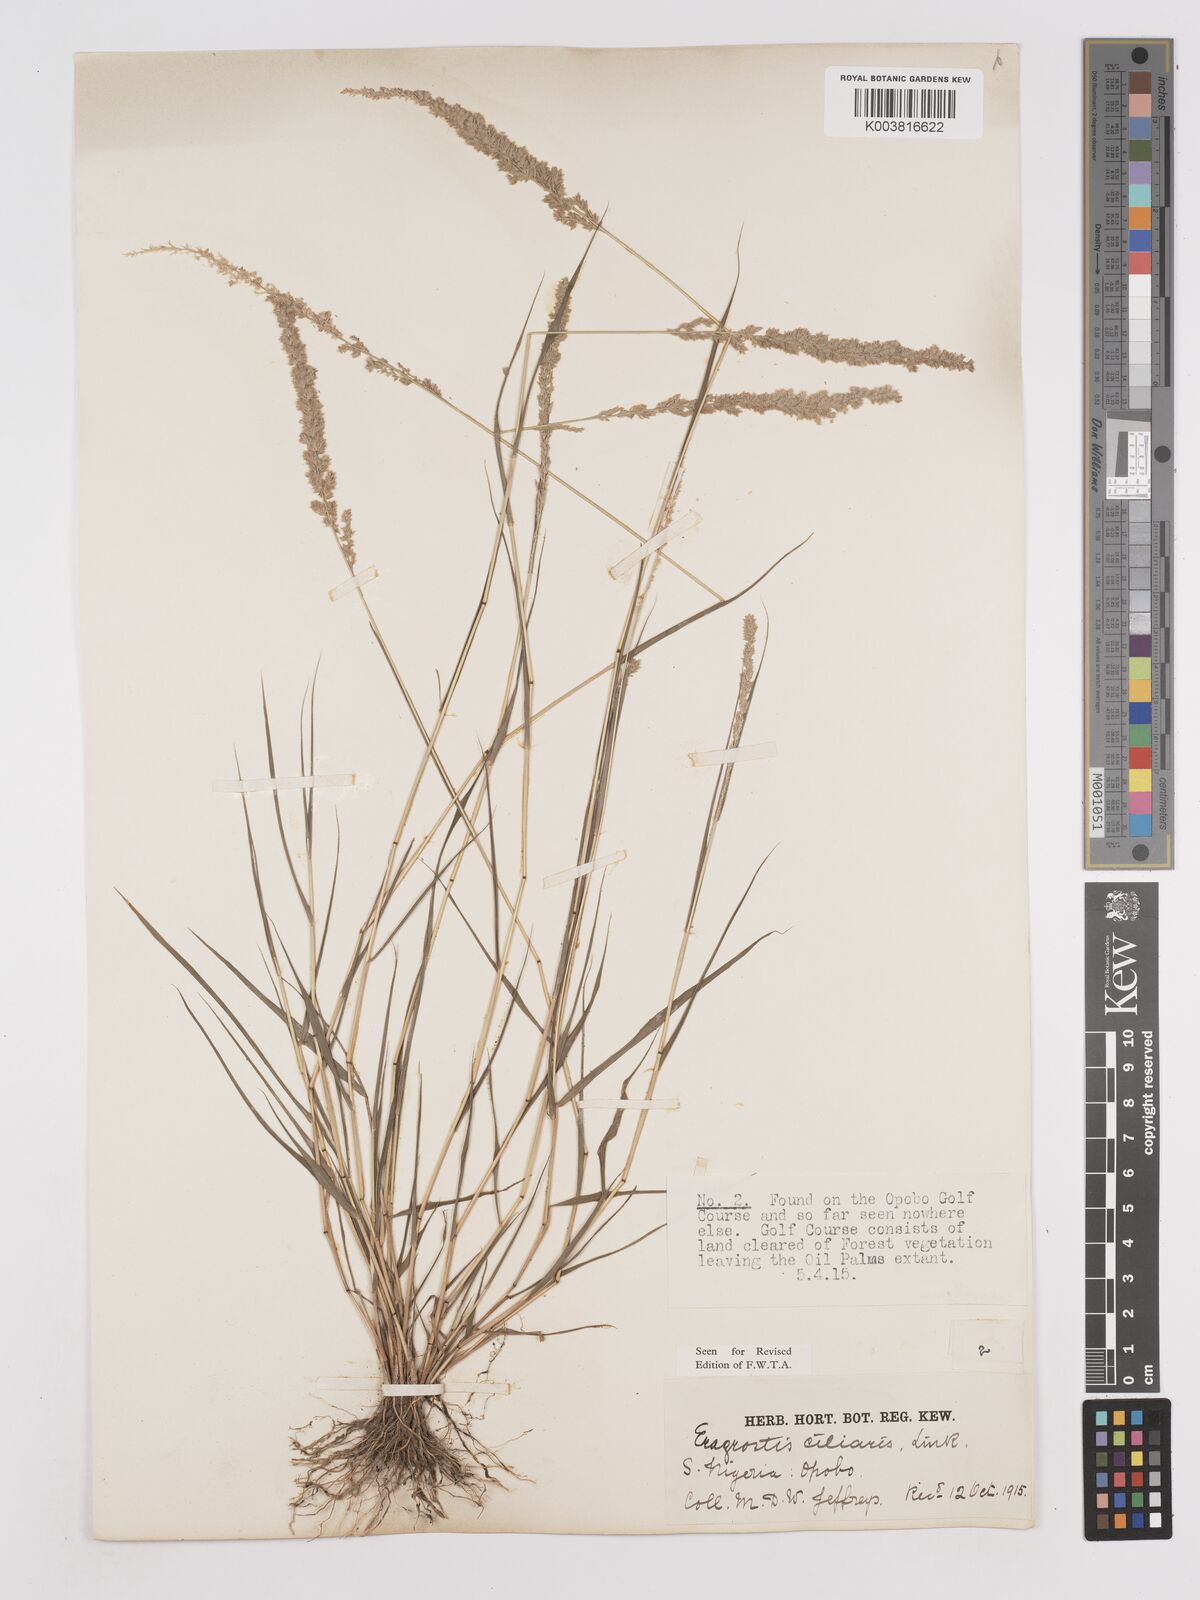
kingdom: Plantae
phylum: Tracheophyta
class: Liliopsida
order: Poales
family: Poaceae
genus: Eragrostis
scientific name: Eragrostis ciliaris
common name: Gophertail lovegrass
